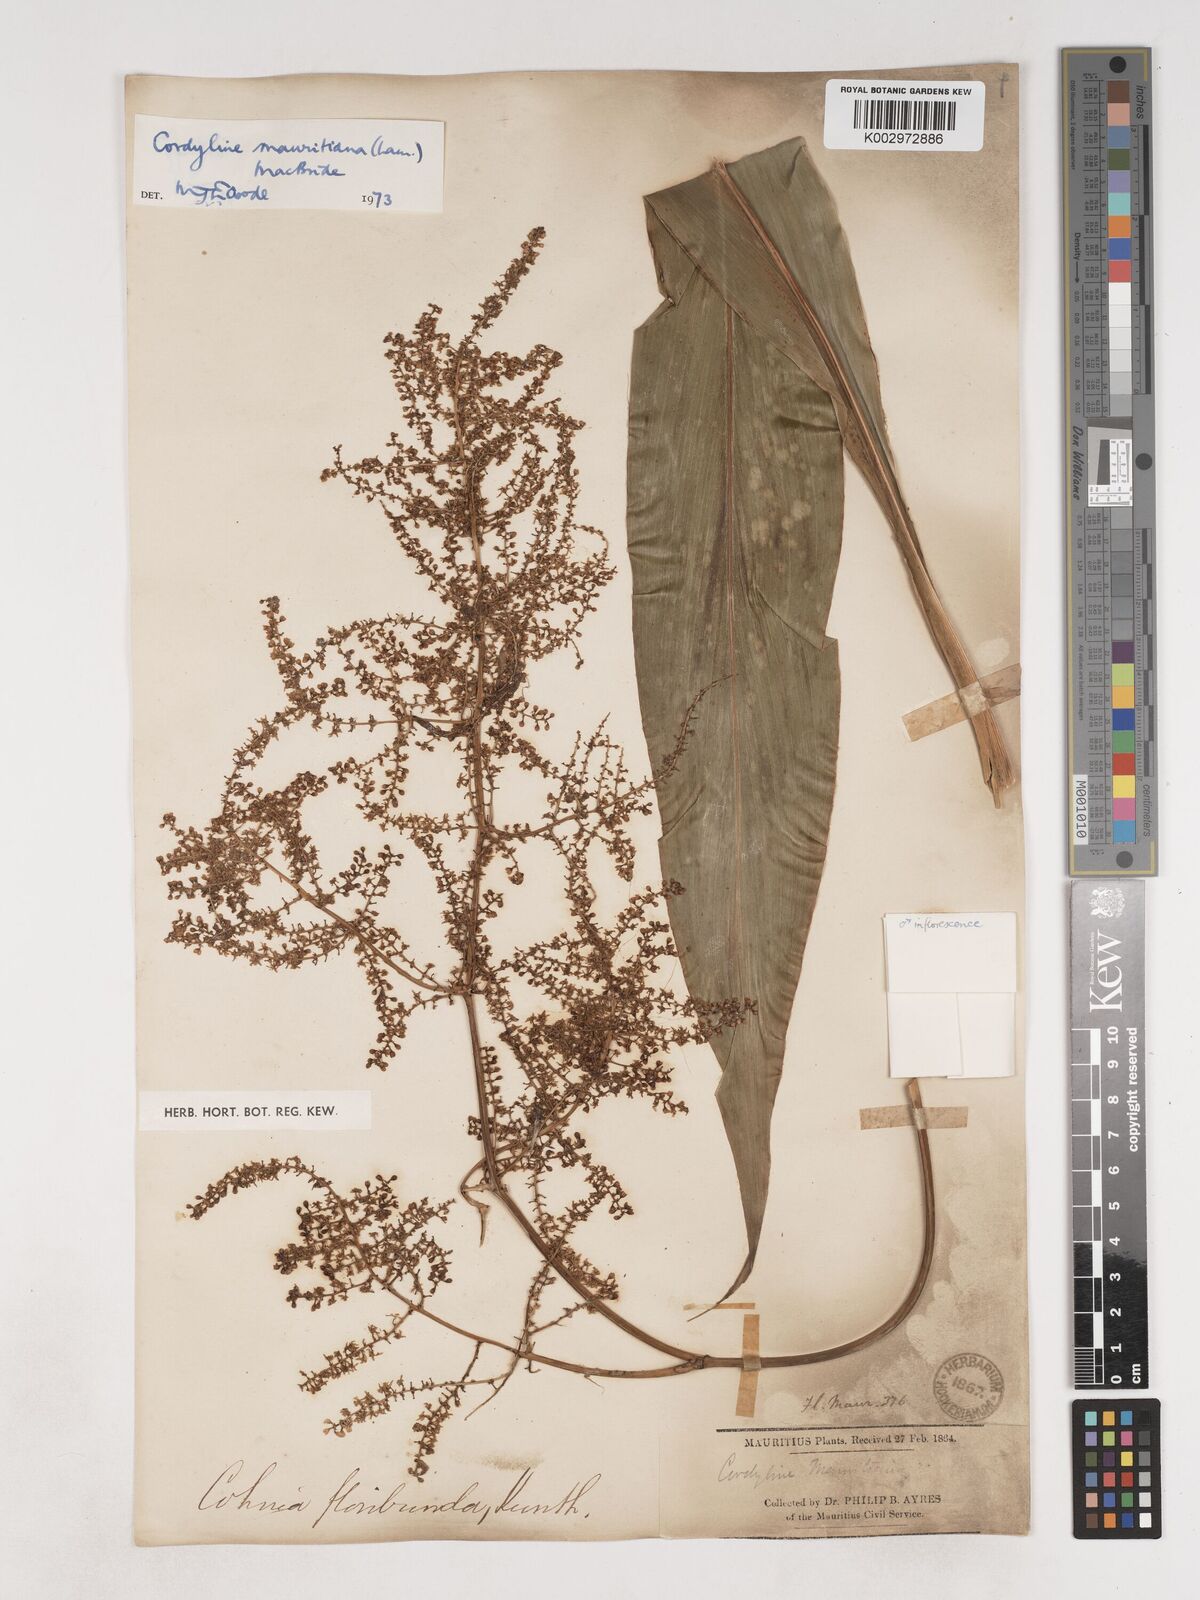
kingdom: Plantae
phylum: Tracheophyta
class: Liliopsida
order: Asparagales
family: Asparagaceae
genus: Cordyline
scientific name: Cordyline mauritiana
